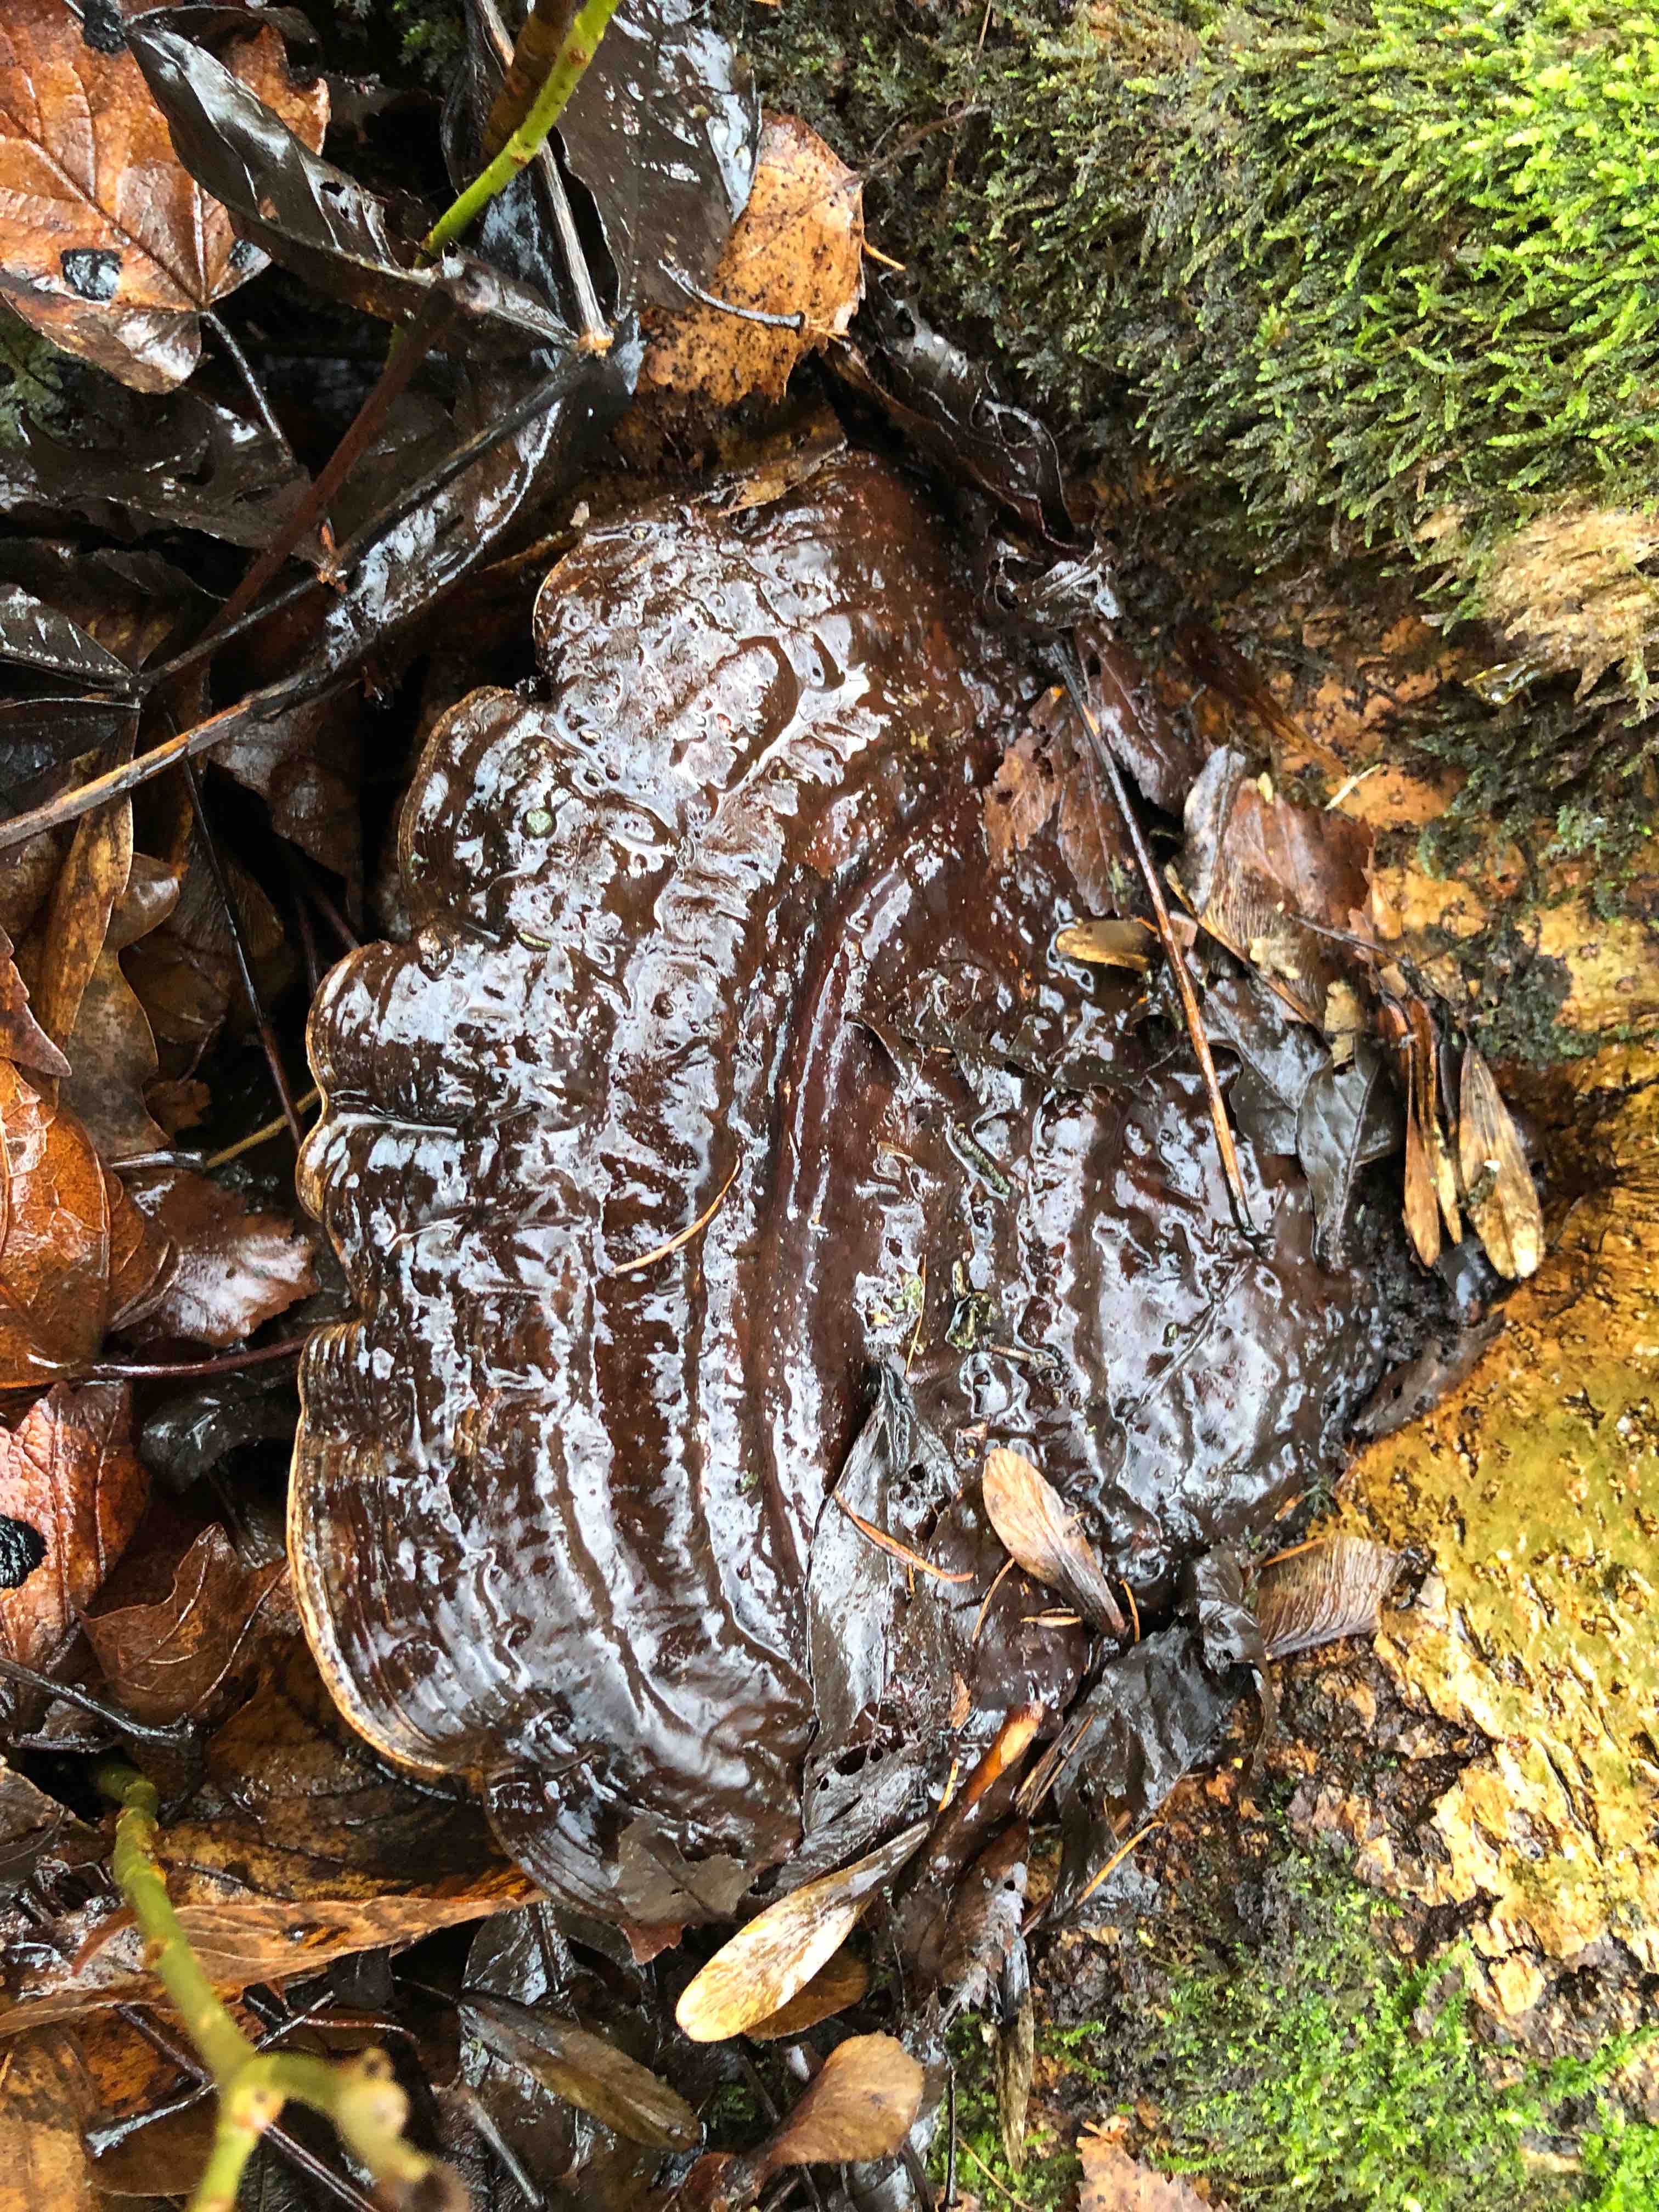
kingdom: Fungi
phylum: Basidiomycota
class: Agaricomycetes
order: Polyporales
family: Polyporaceae
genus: Ganoderma
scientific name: Ganoderma applanatum
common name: flad lakporesvamp
